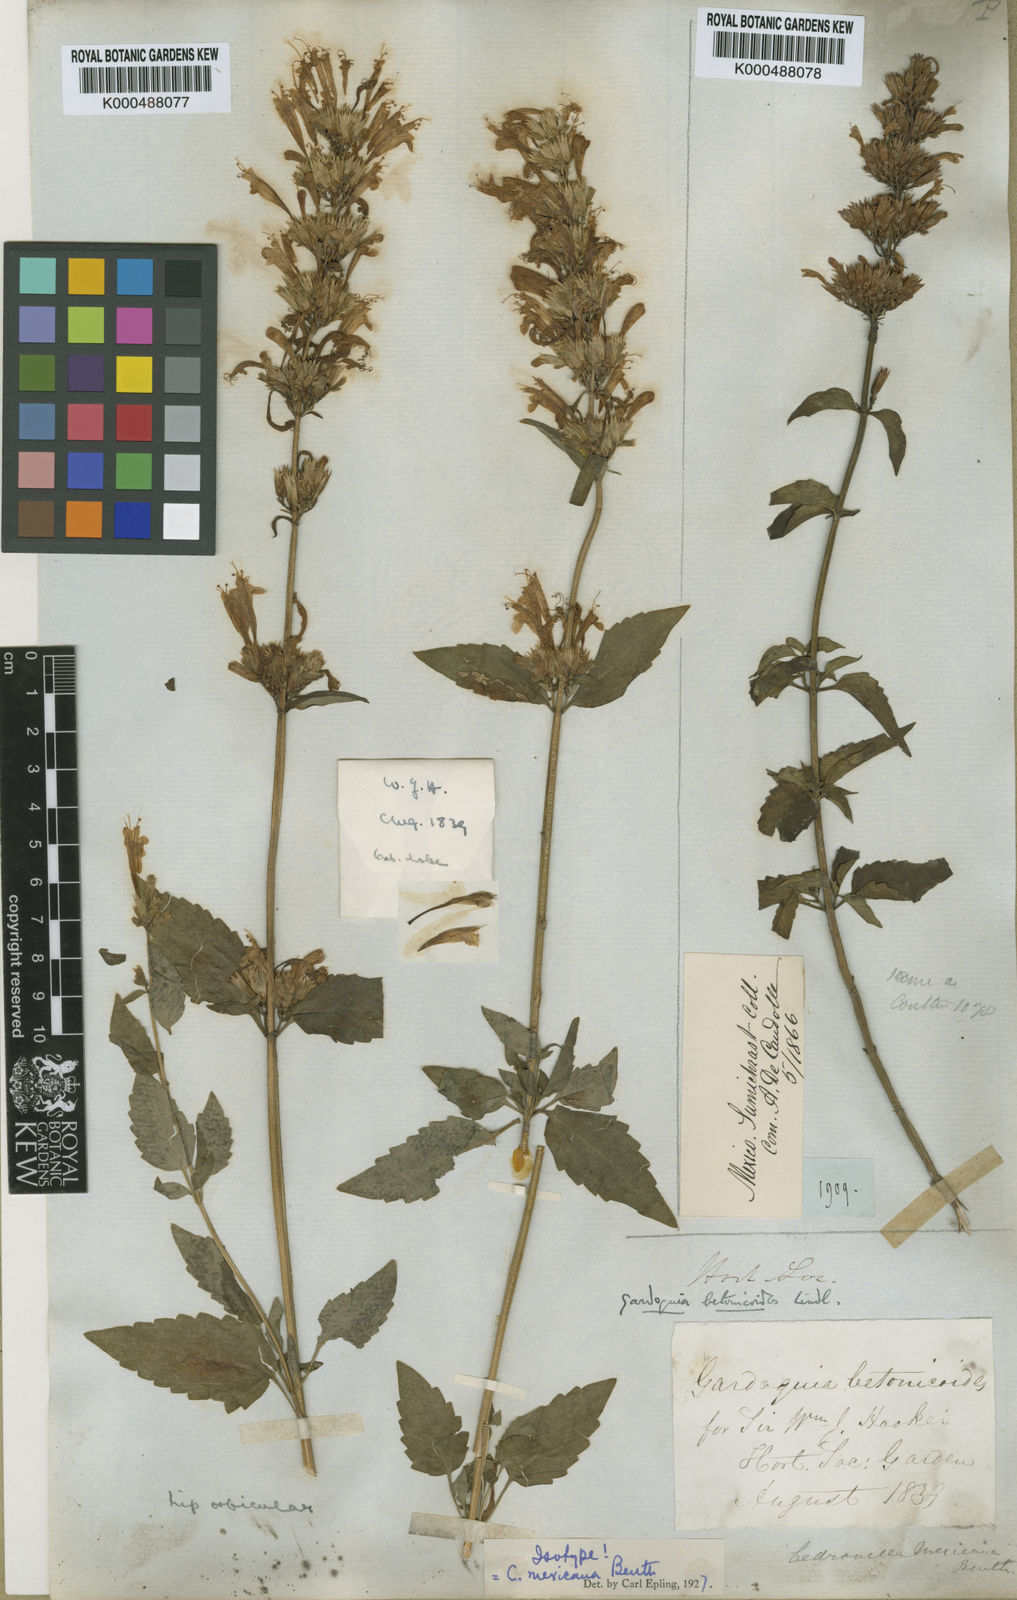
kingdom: Plantae
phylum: Tracheophyta
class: Magnoliopsida
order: Lamiales
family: Lamiaceae
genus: Agastache
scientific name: Agastache mexicana
